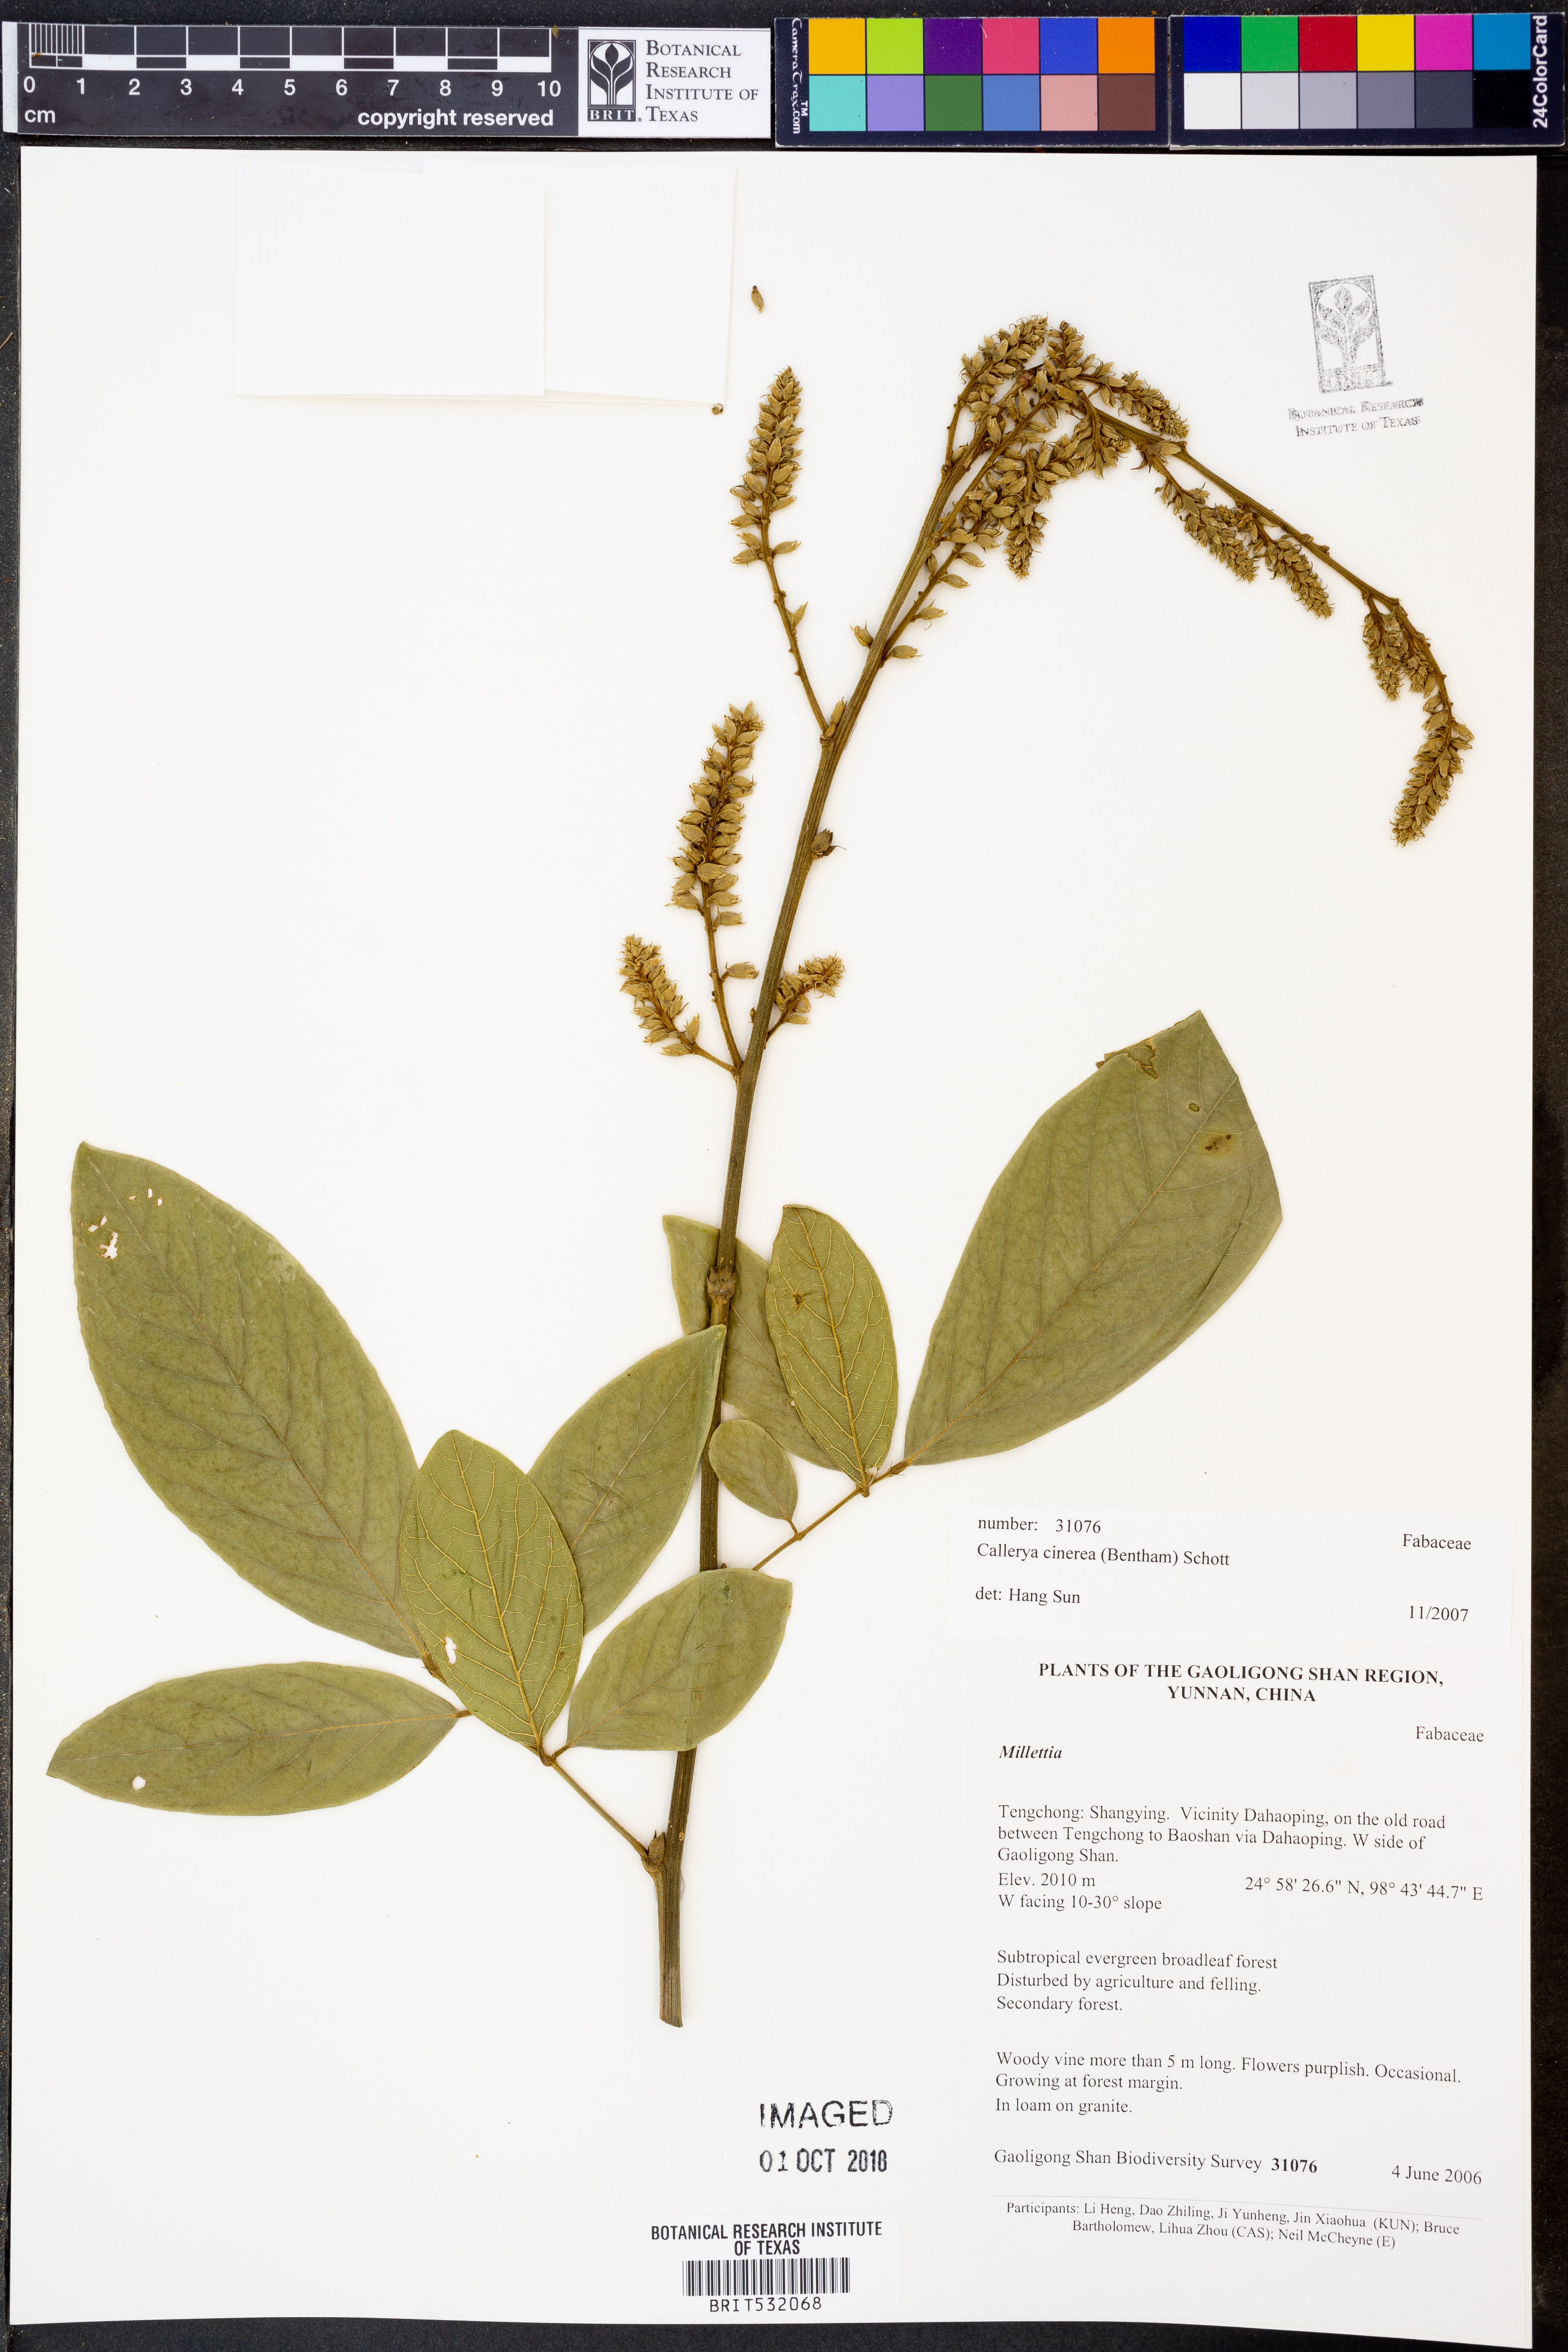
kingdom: Plantae
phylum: Tracheophyta
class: Magnoliopsida
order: Fabales
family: Fabaceae
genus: Callerya
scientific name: Callerya cinerea
